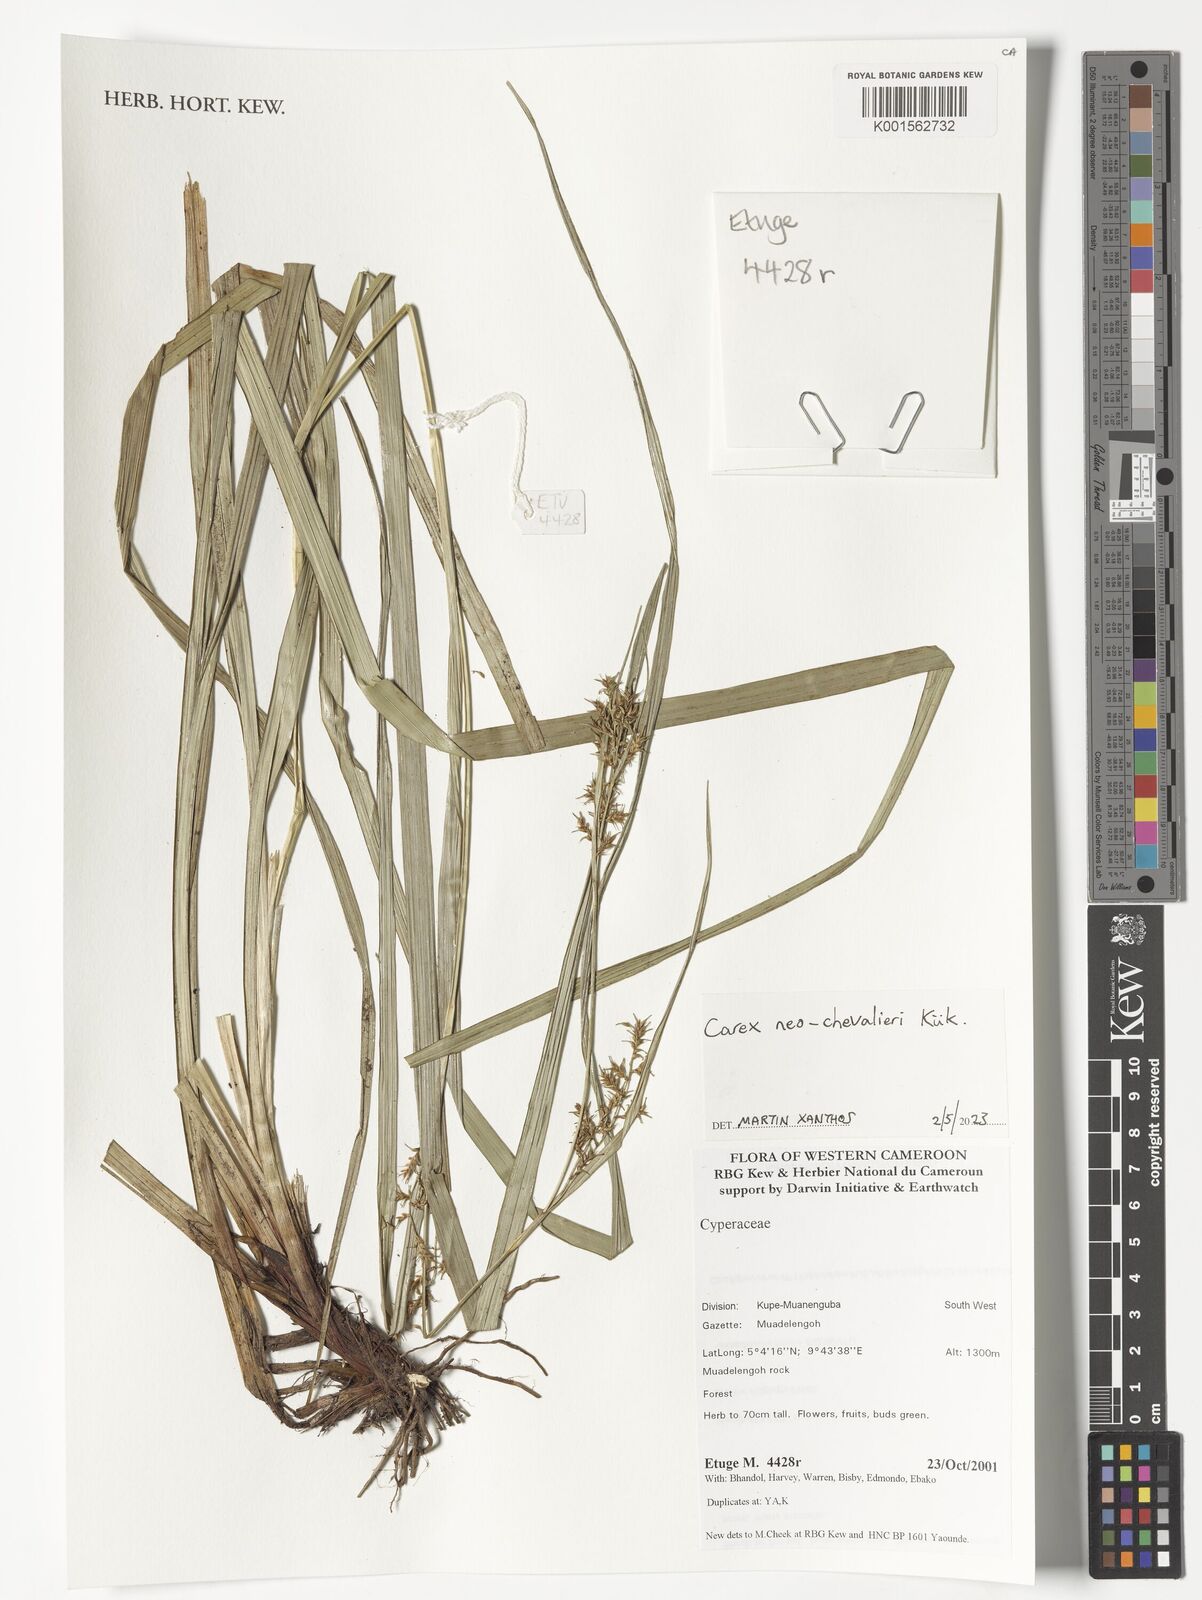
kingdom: Plantae
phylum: Tracheophyta
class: Liliopsida
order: Poales
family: Cyperaceae
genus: Carex
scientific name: Carex neochevalieri
